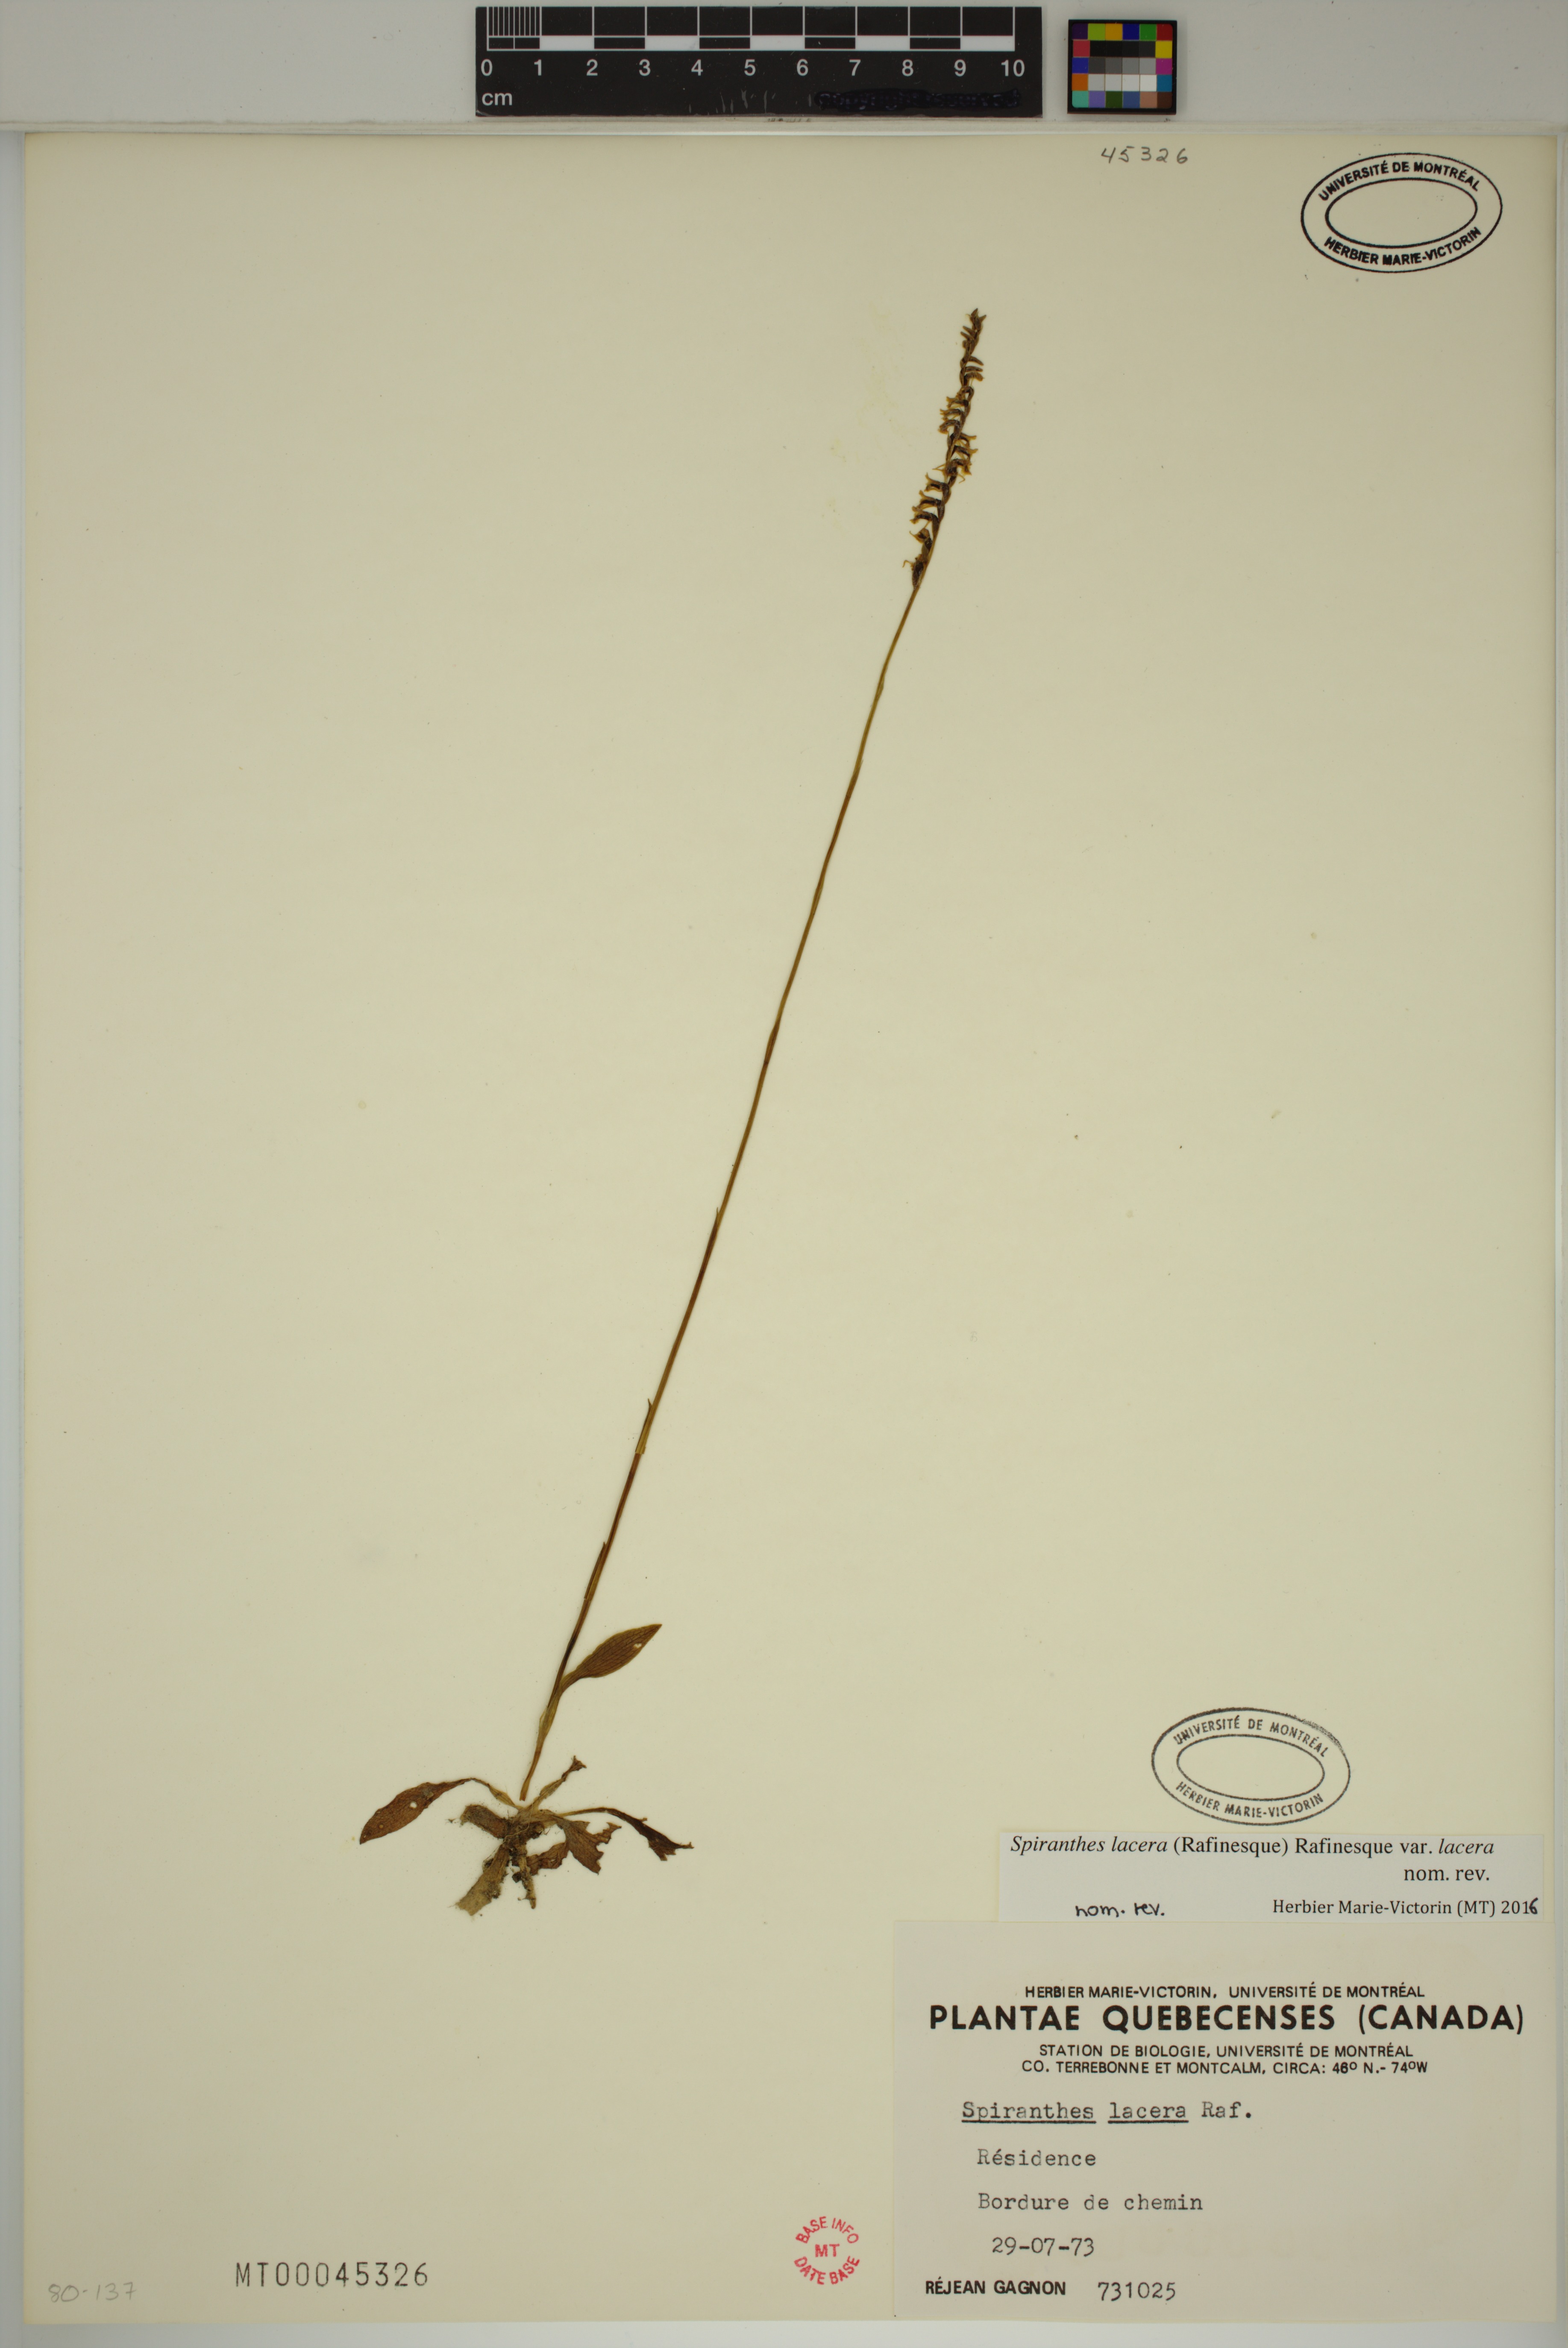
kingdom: Plantae
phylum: Tracheophyta
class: Liliopsida
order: Asparagales
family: Orchidaceae
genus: Spiranthes
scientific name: Spiranthes lacera
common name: Northern slender ladies'-tresses
